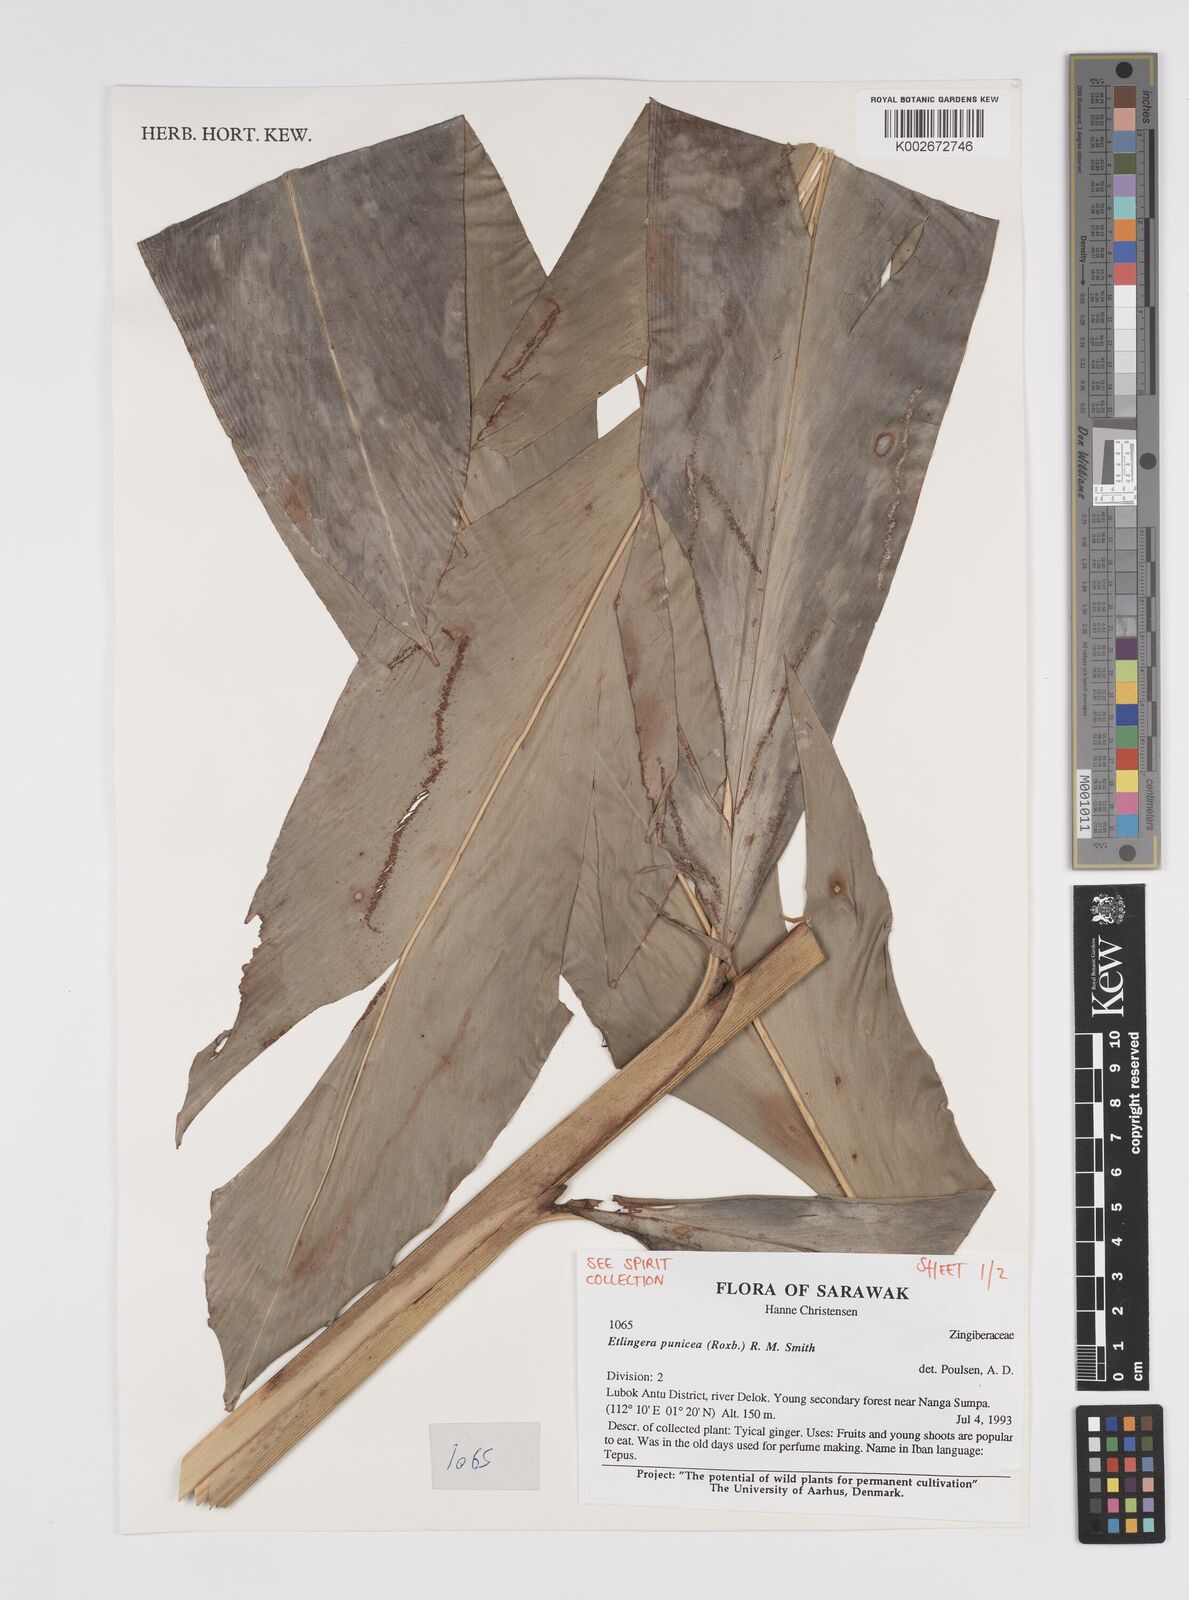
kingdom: Plantae
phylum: Tracheophyta
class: Liliopsida
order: Zingiberales
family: Zingiberaceae
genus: Etlingera
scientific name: Etlingera punicea
